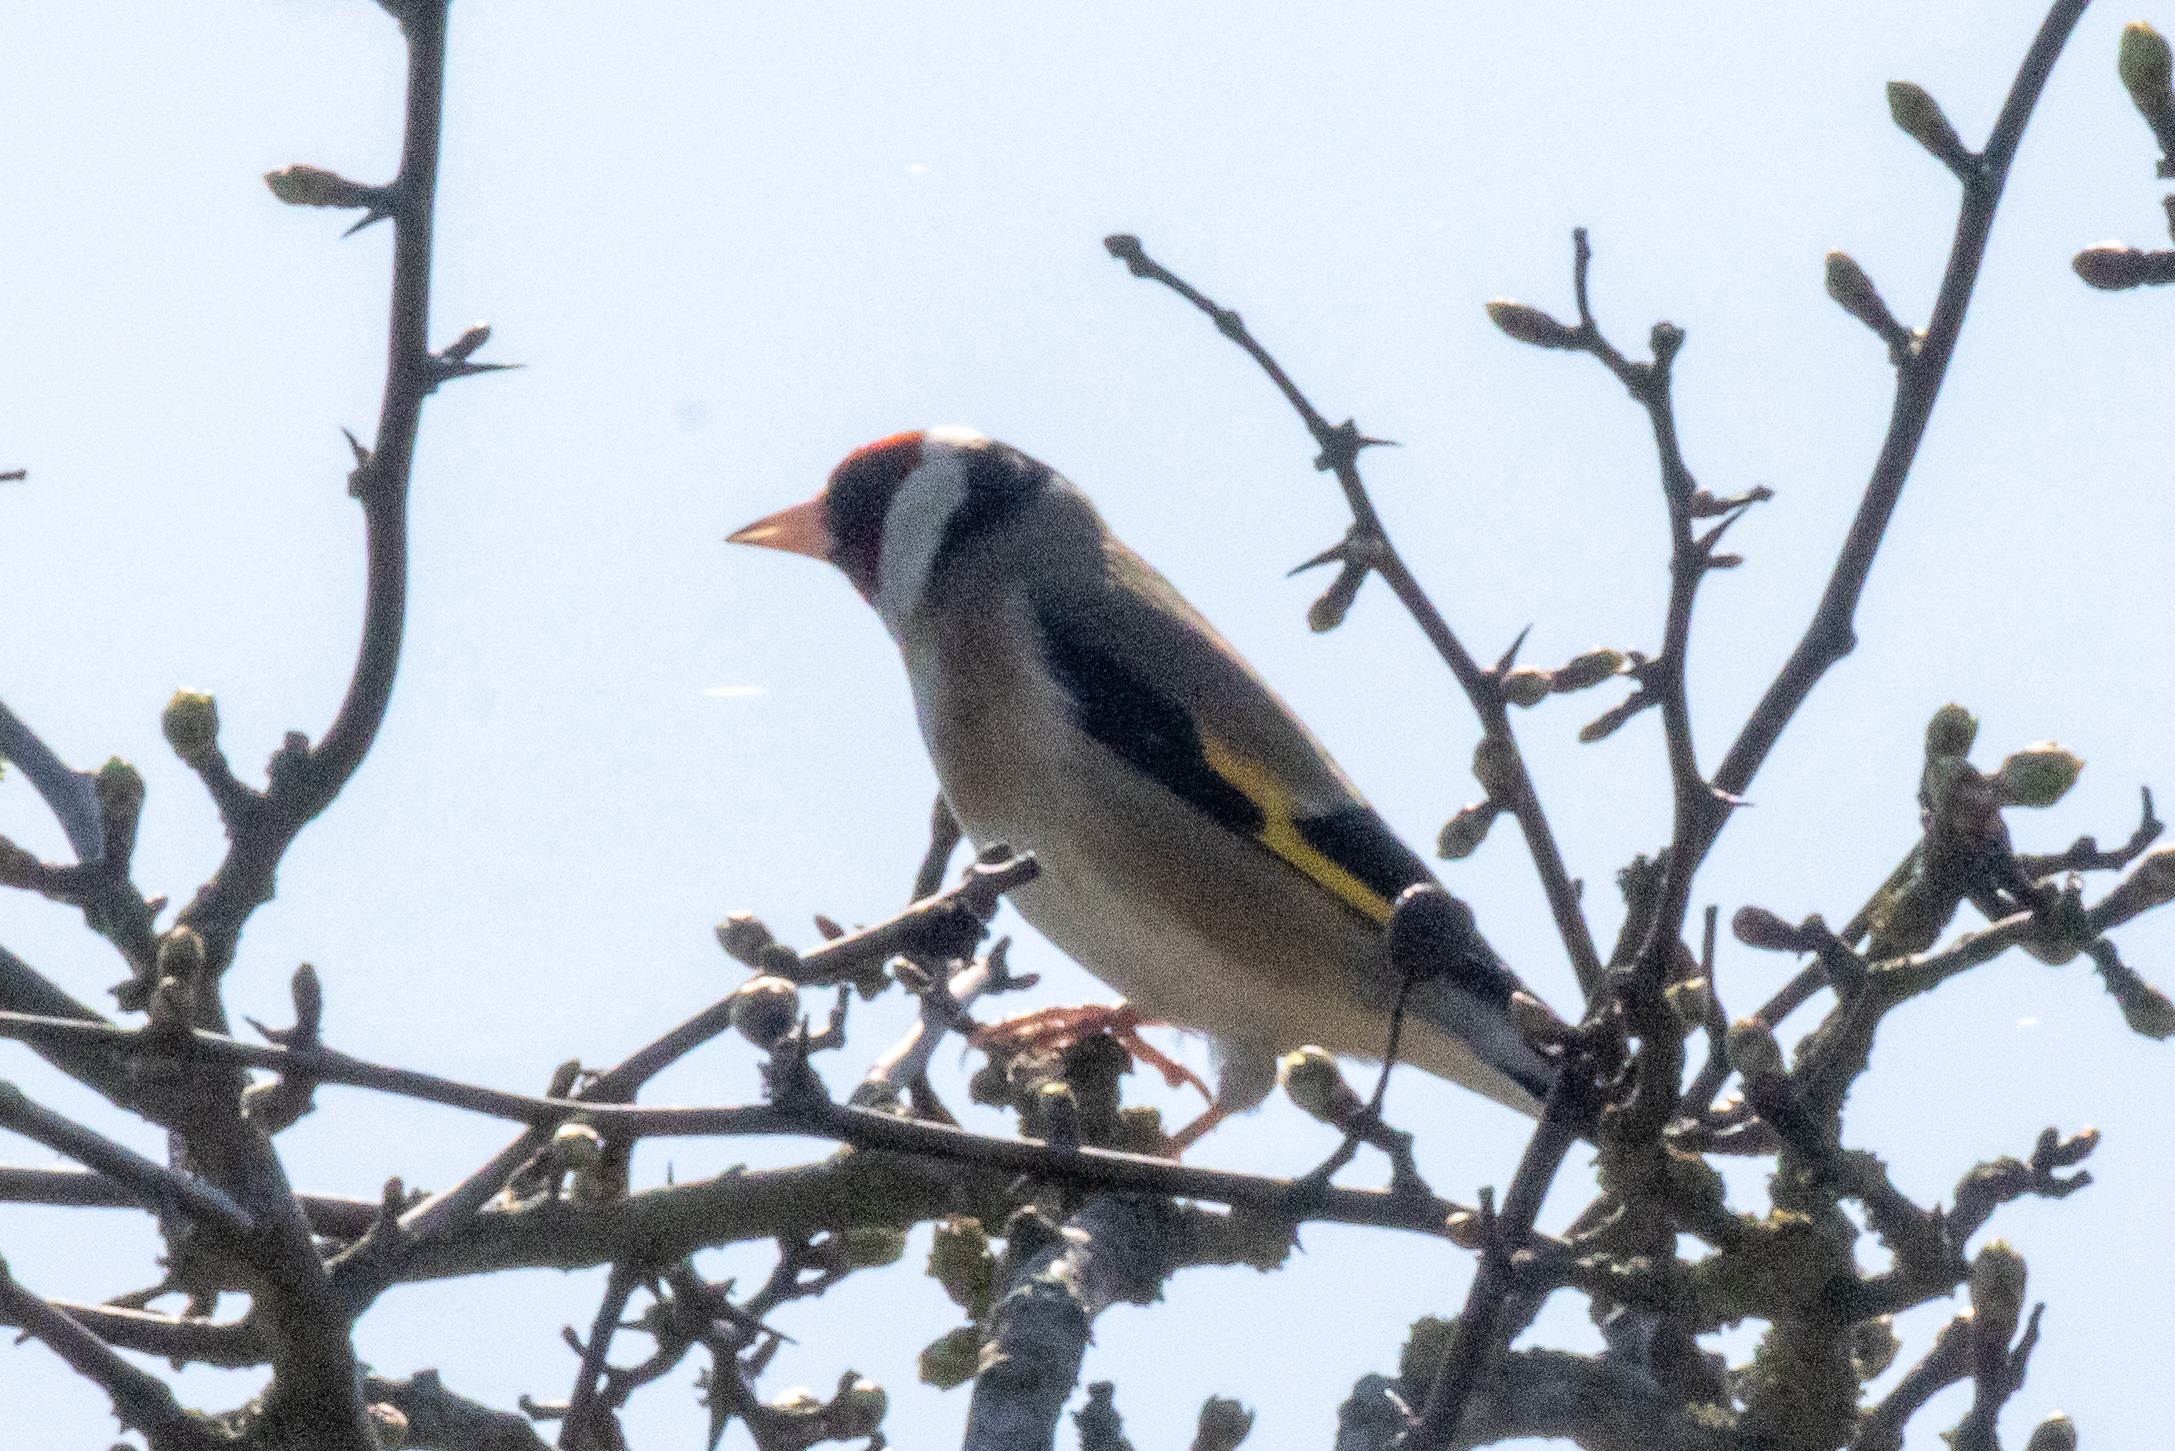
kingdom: Animalia
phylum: Chordata
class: Aves
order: Passeriformes
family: Fringillidae
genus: Carduelis
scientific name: Carduelis carduelis
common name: Stillits
